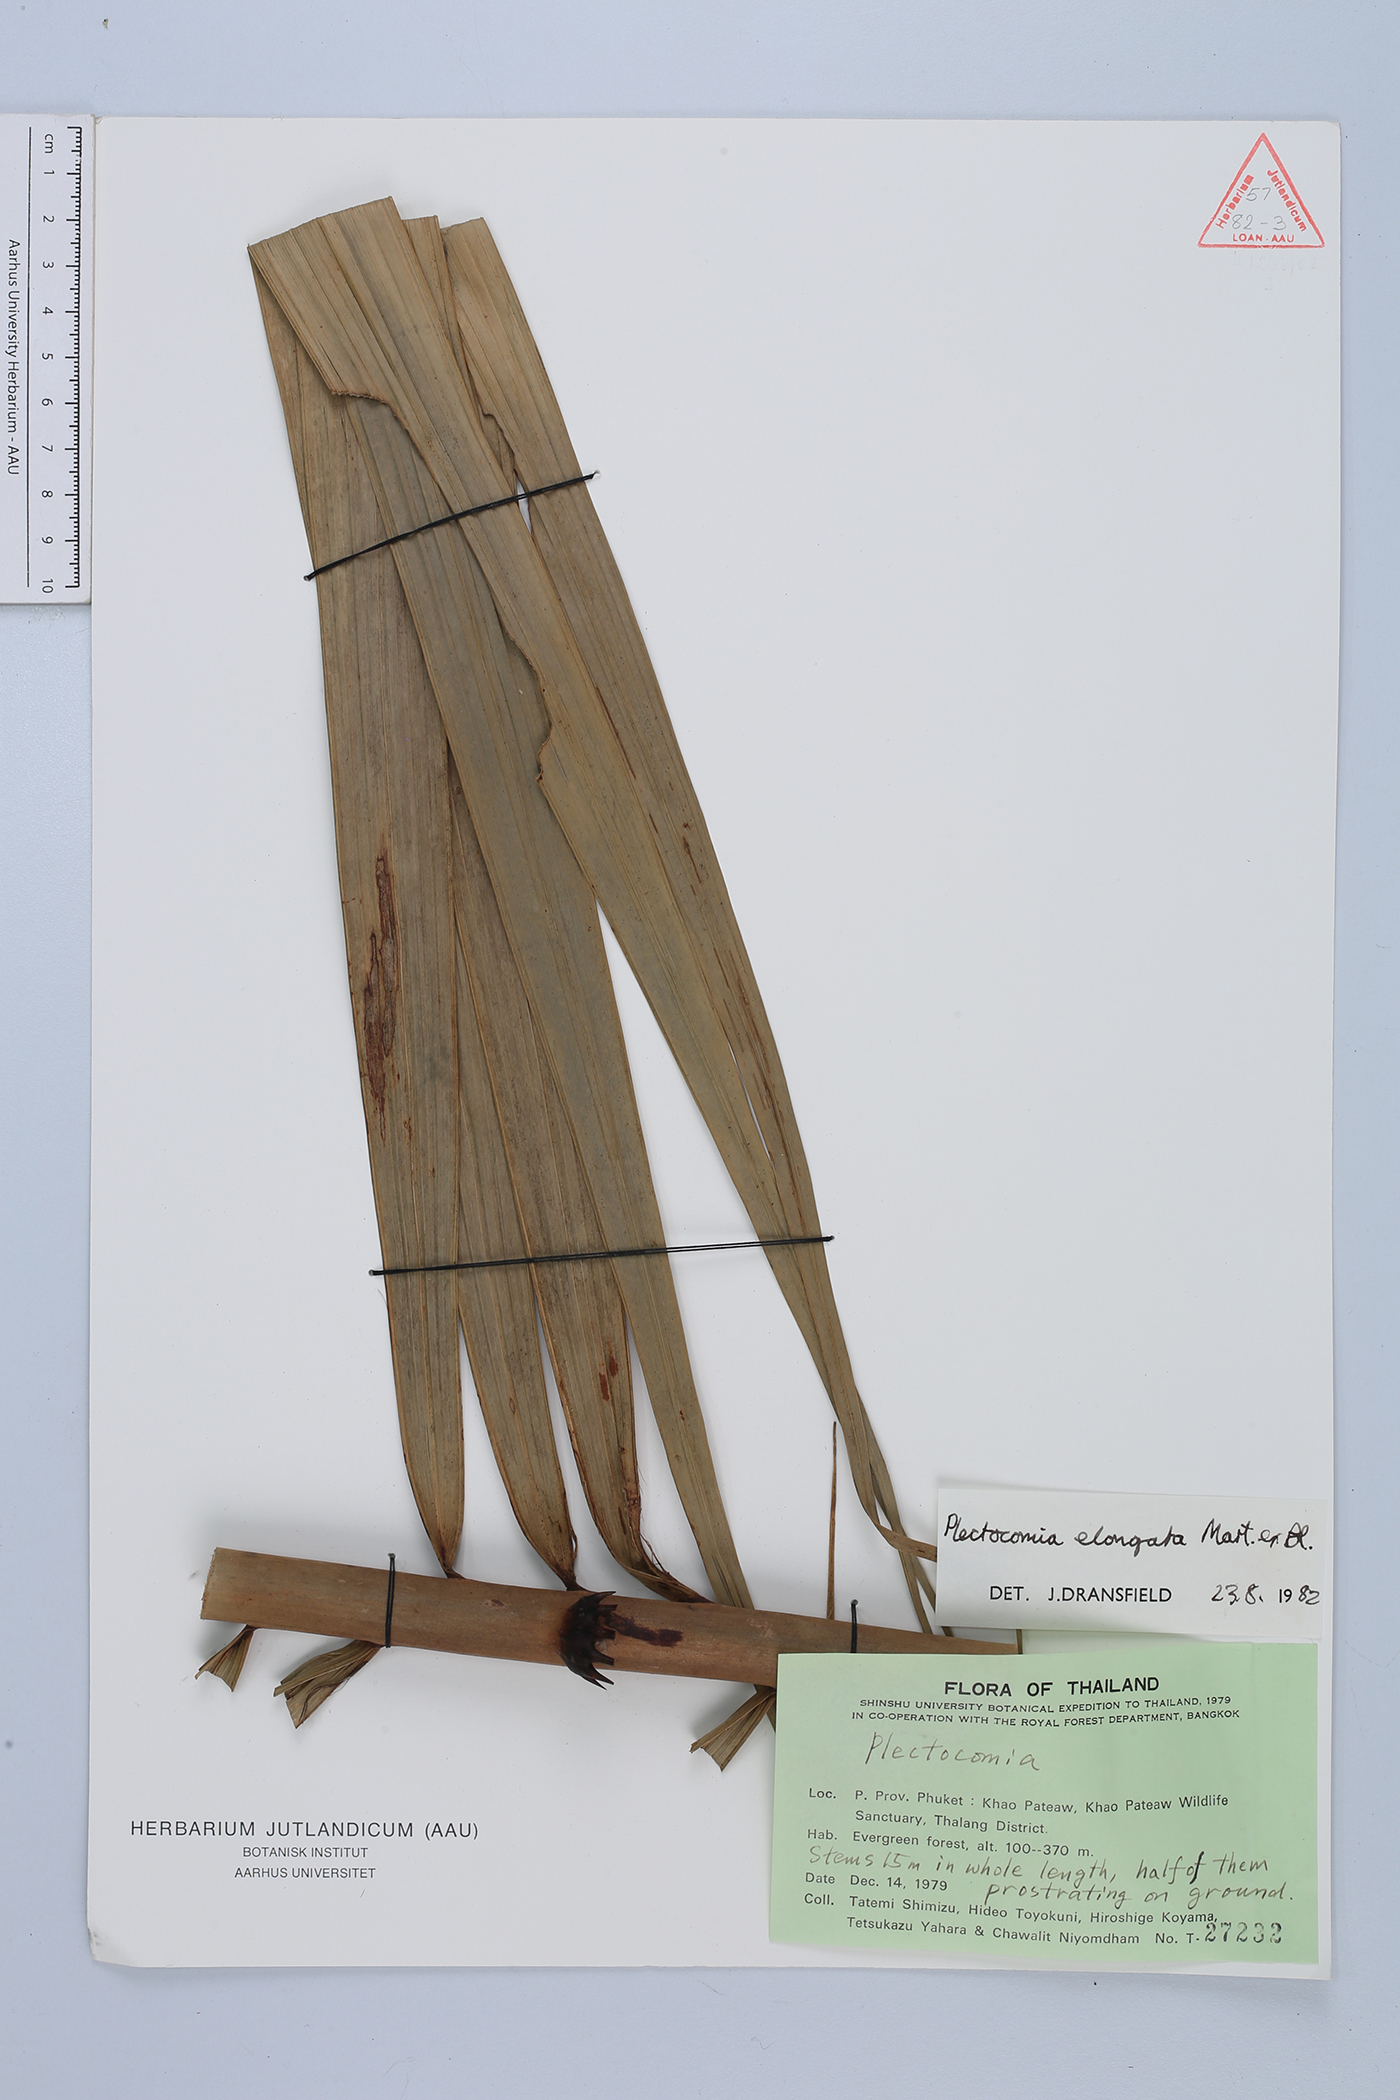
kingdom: Plantae
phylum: Tracheophyta
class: Liliopsida
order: Arecales
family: Arecaceae
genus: Plectocomia
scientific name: Plectocomia elongata
